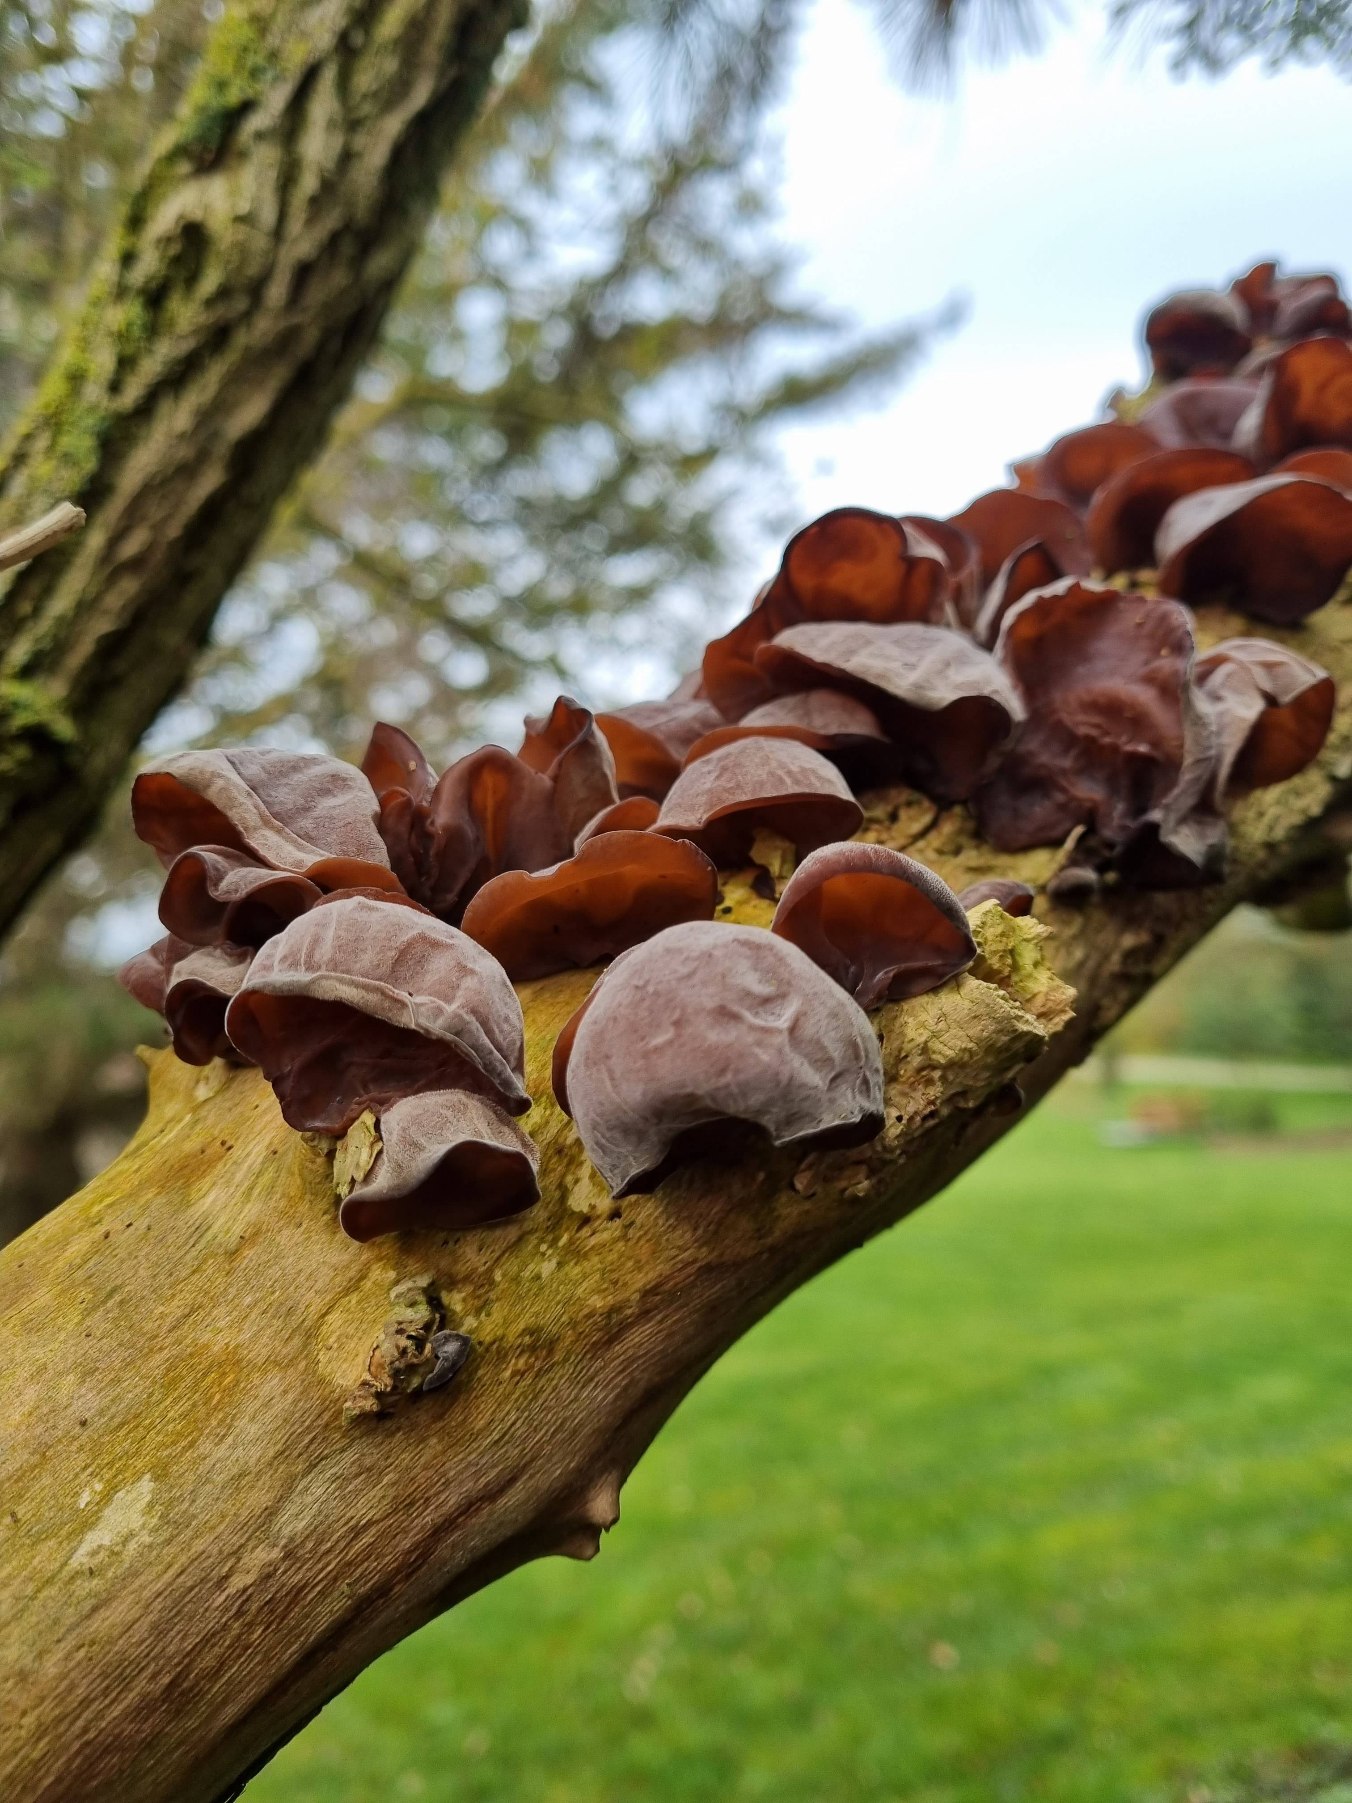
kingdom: Fungi
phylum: Basidiomycota
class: Agaricomycetes
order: Auriculariales
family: Auriculariaceae
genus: Auricularia
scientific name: Auricularia auricula-judae
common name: Almindelig judasøre
